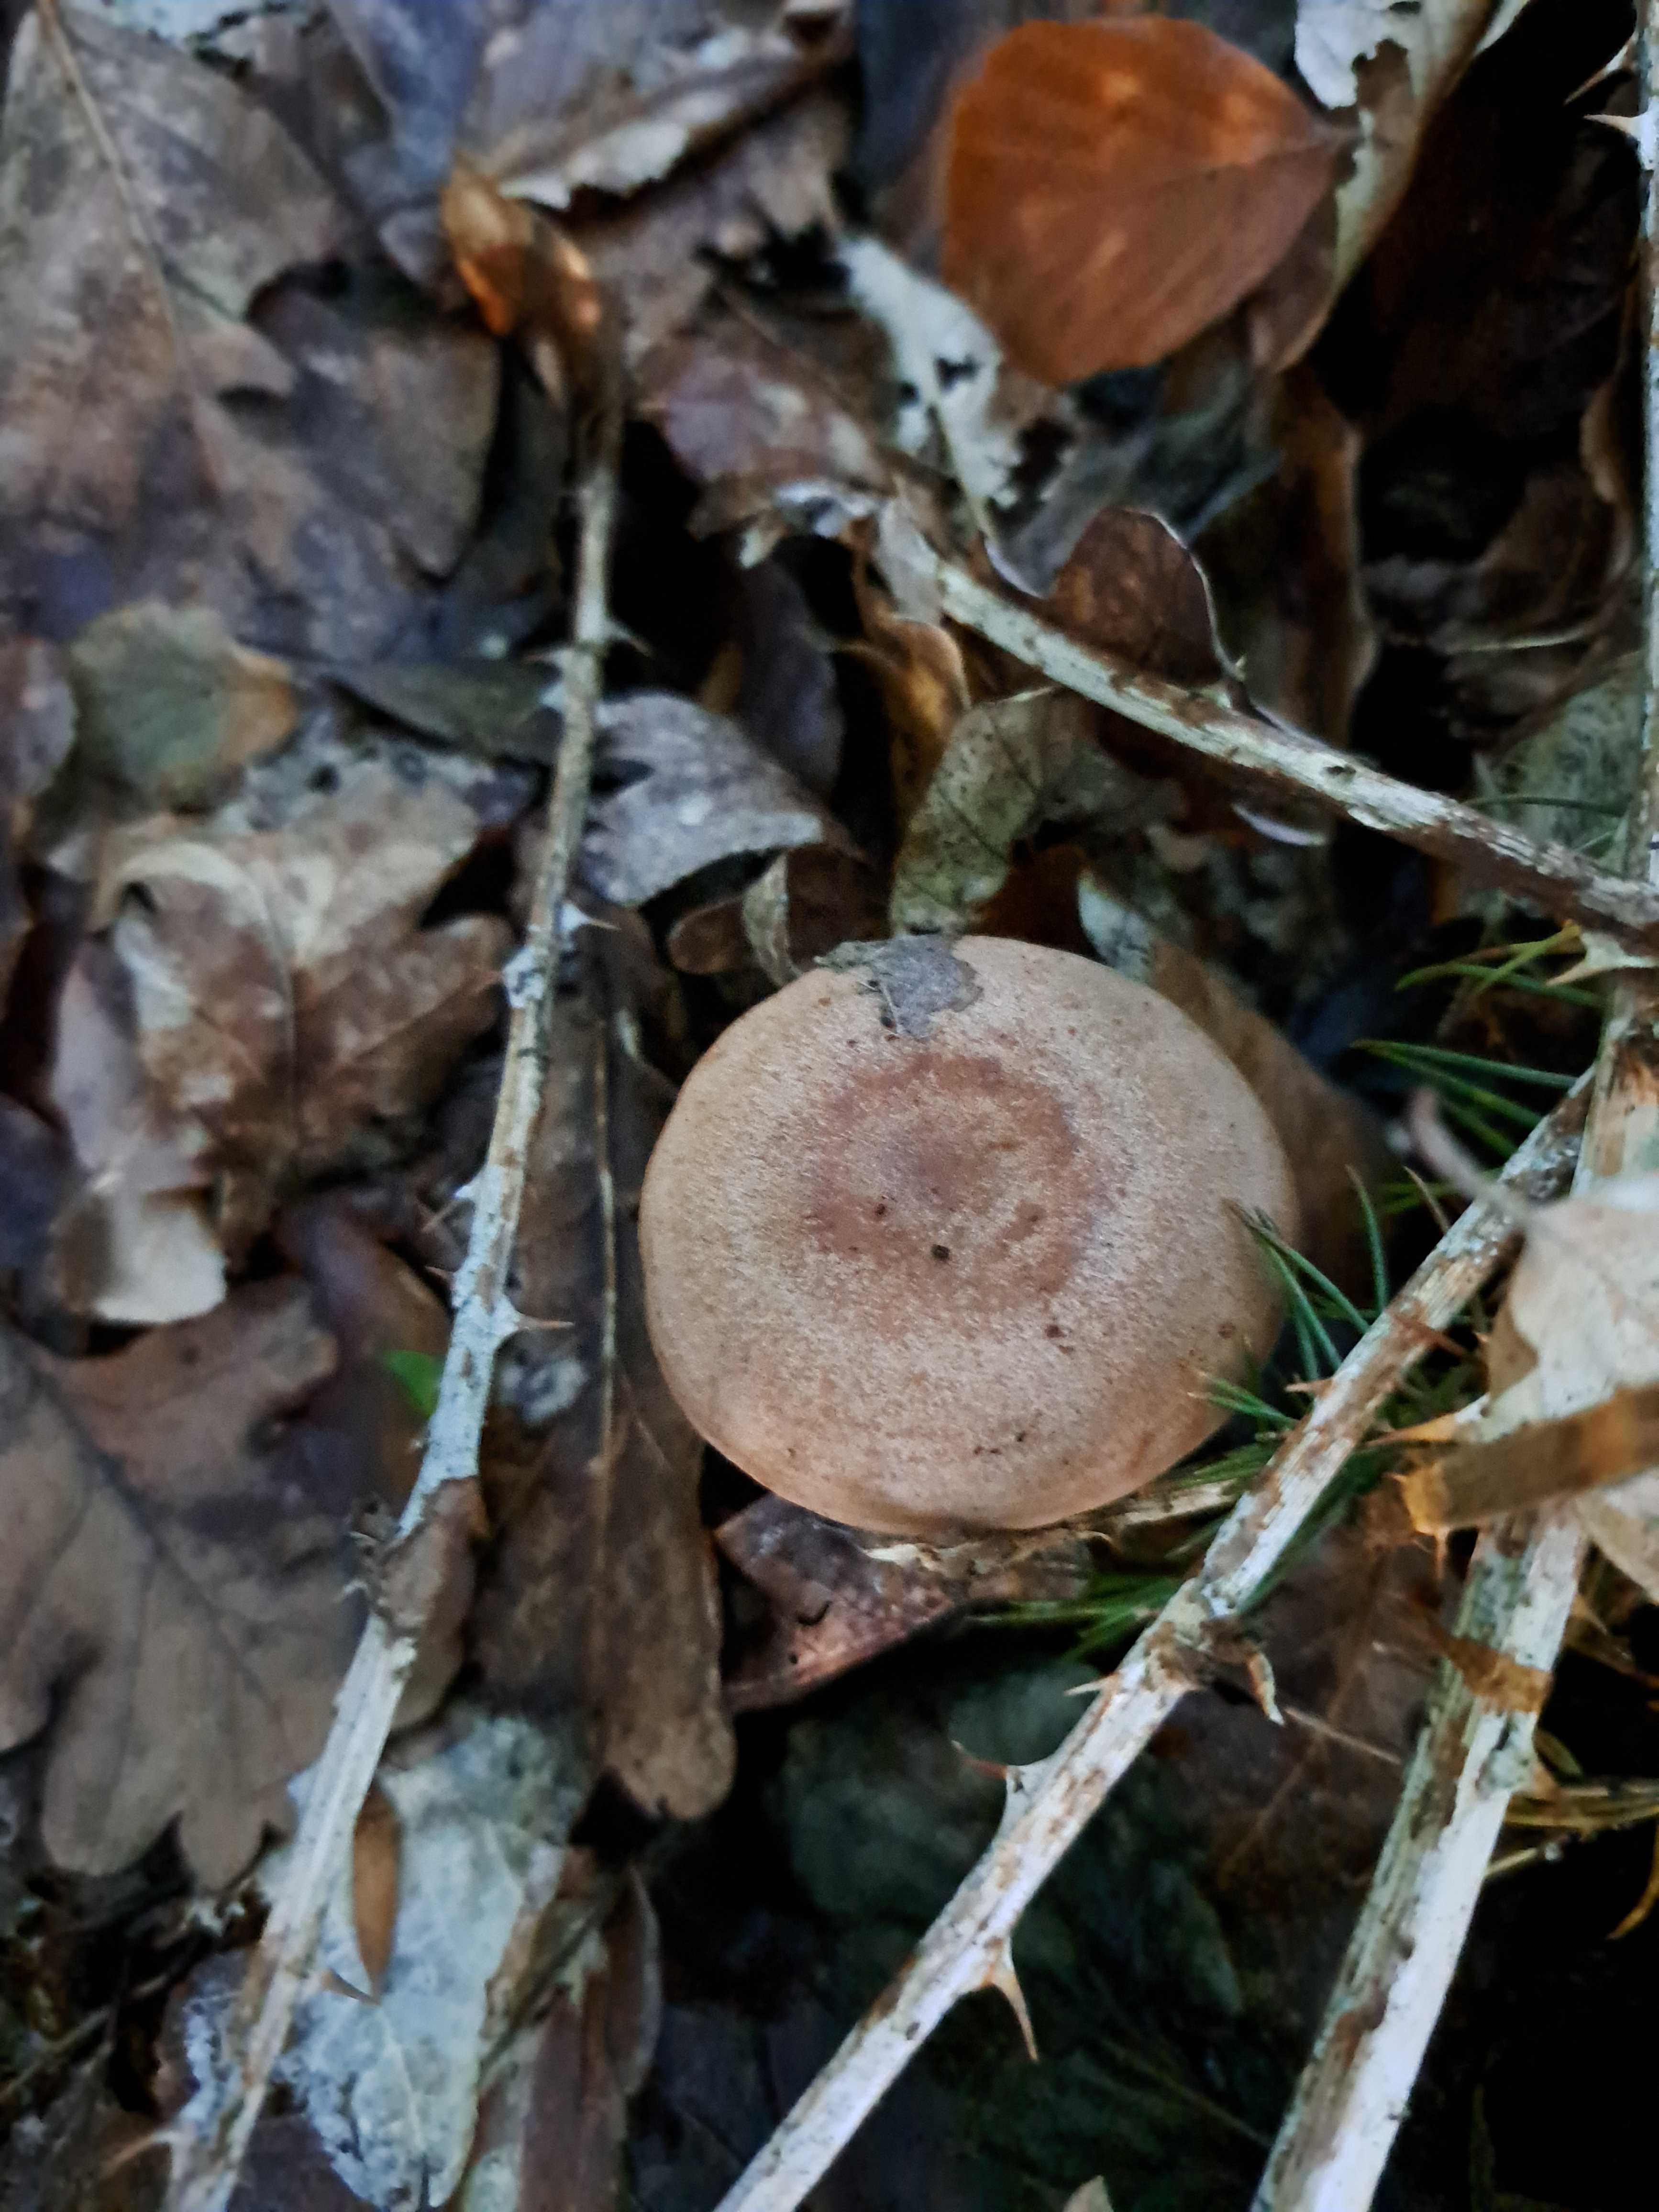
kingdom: Fungi
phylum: Basidiomycota
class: Agaricomycetes
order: Russulales
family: Russulaceae
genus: Lactarius
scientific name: Lactarius quietus
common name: ege-mælkehat
